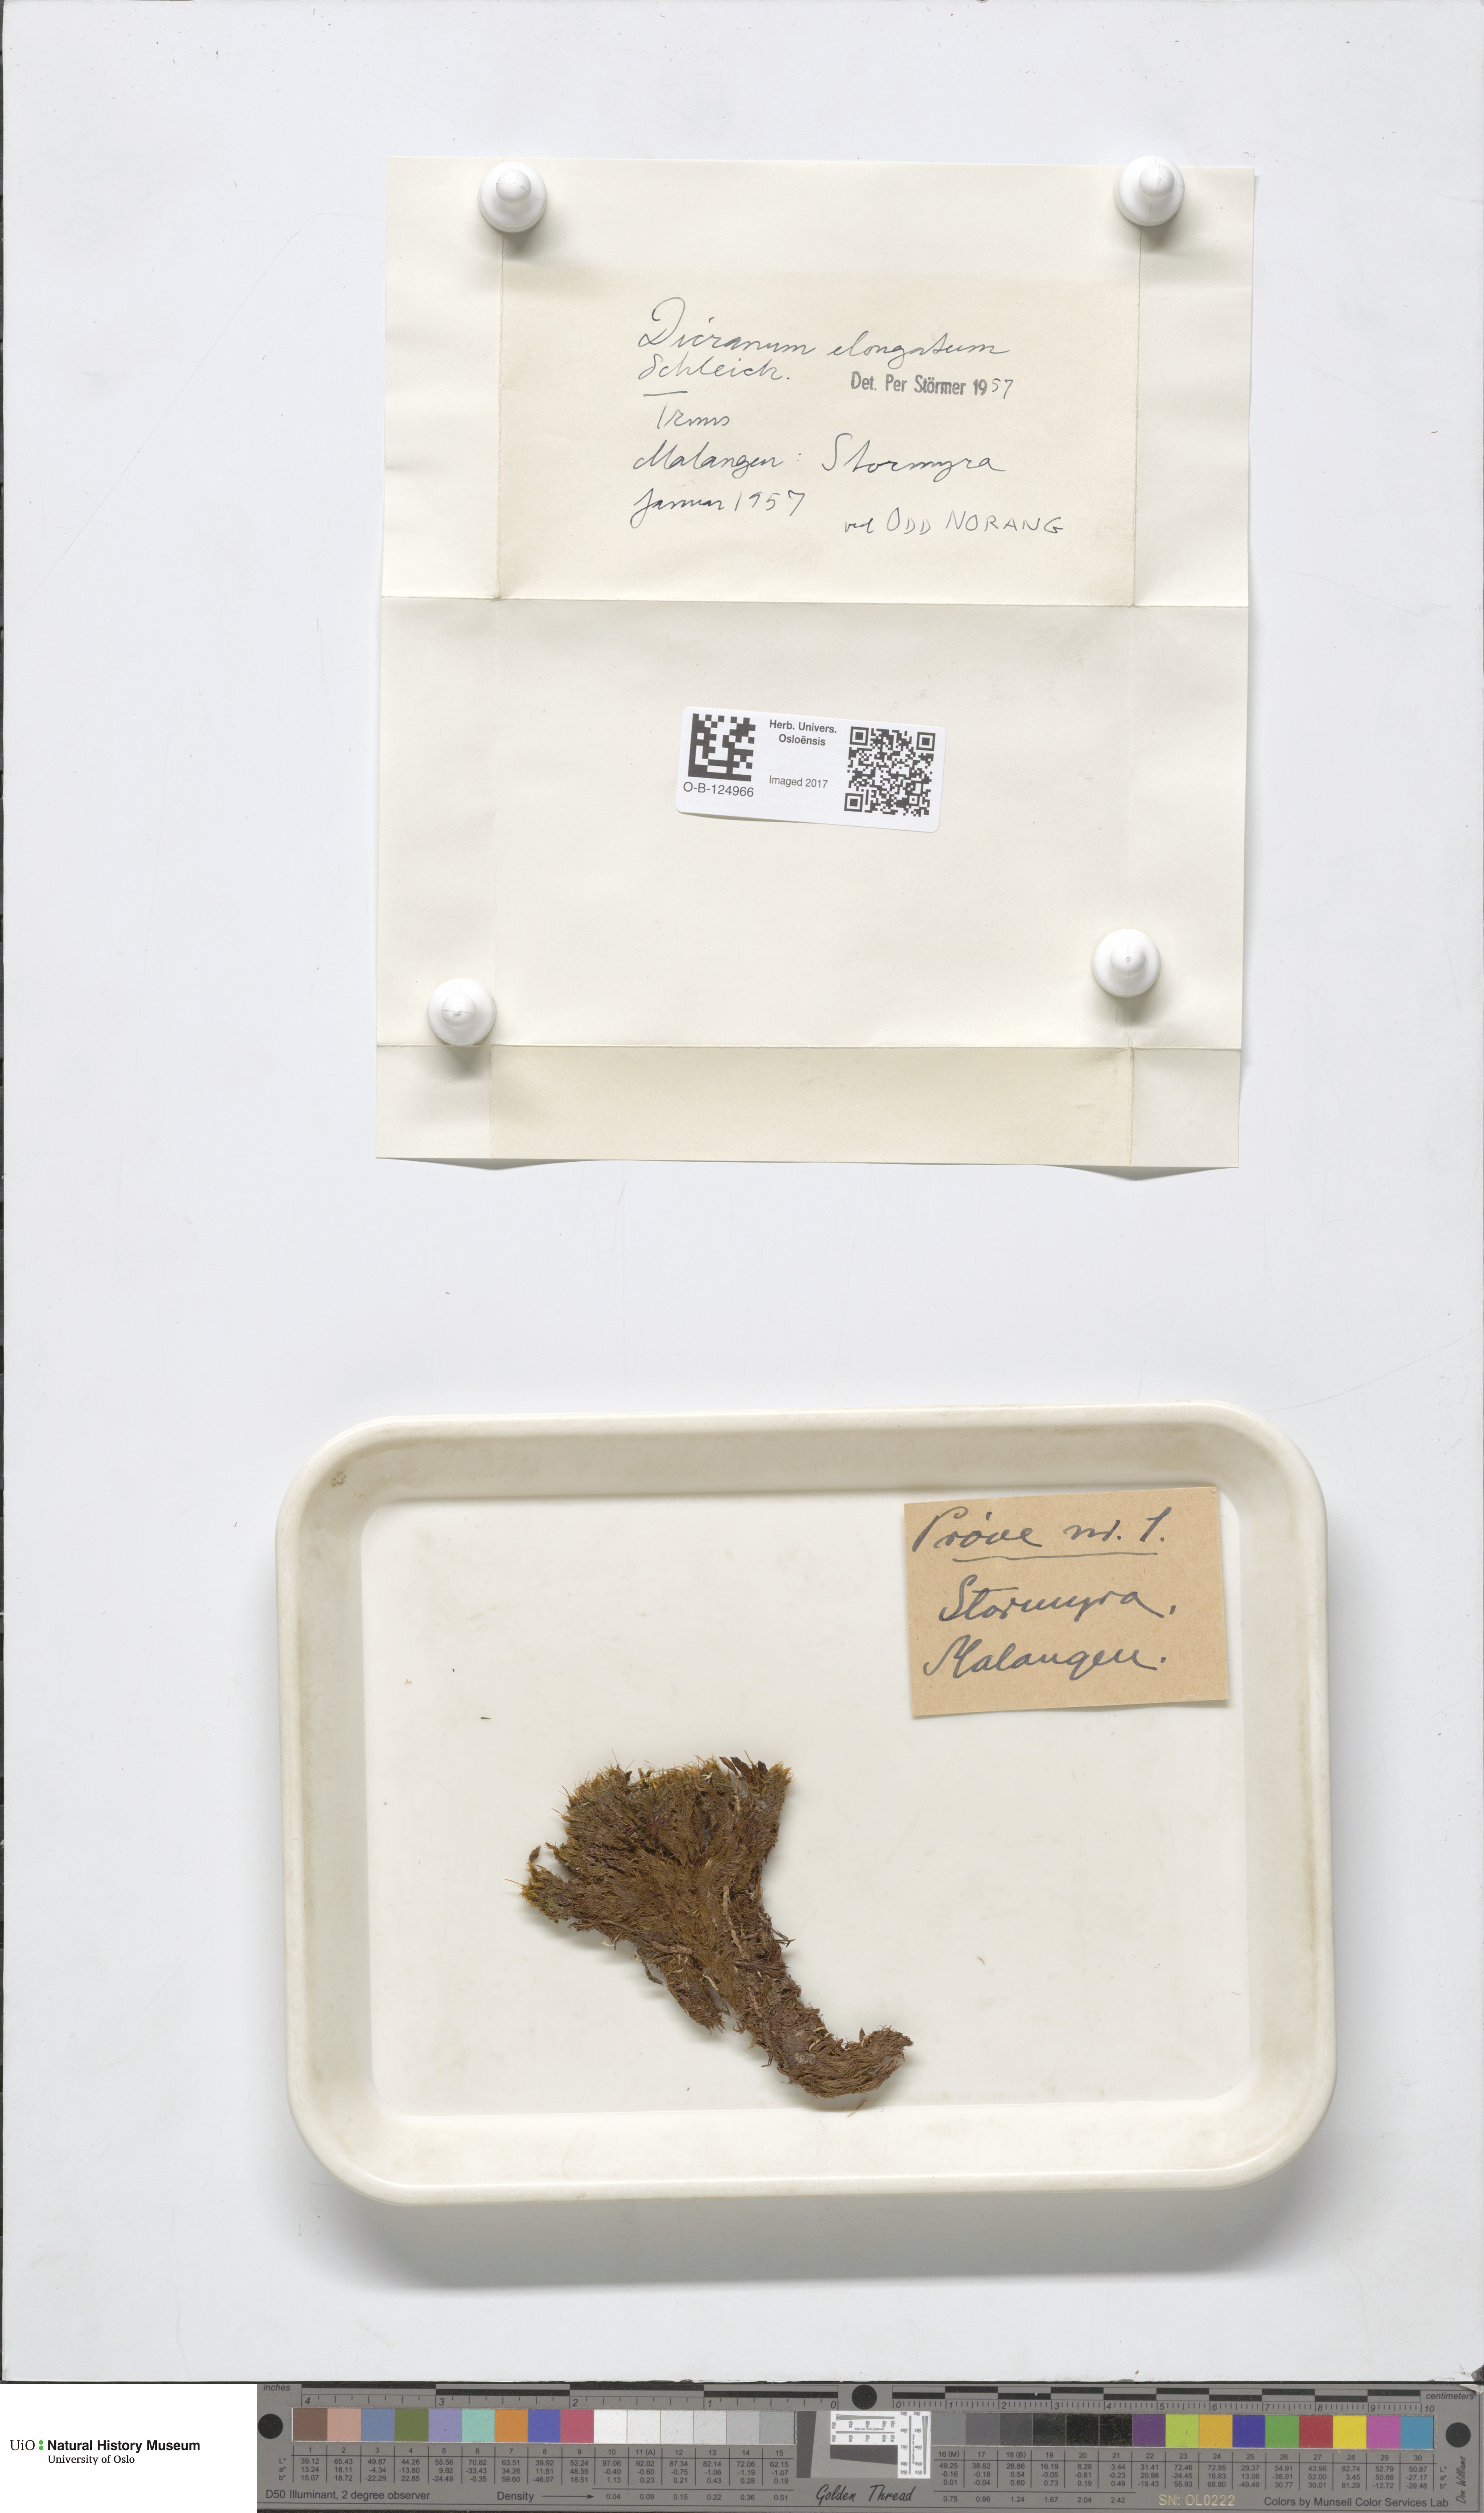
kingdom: Plantae
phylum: Bryophyta
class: Bryopsida
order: Dicranales
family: Dicranaceae
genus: Dicranum
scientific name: Dicranum elongatum
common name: Long-forked broom moss
